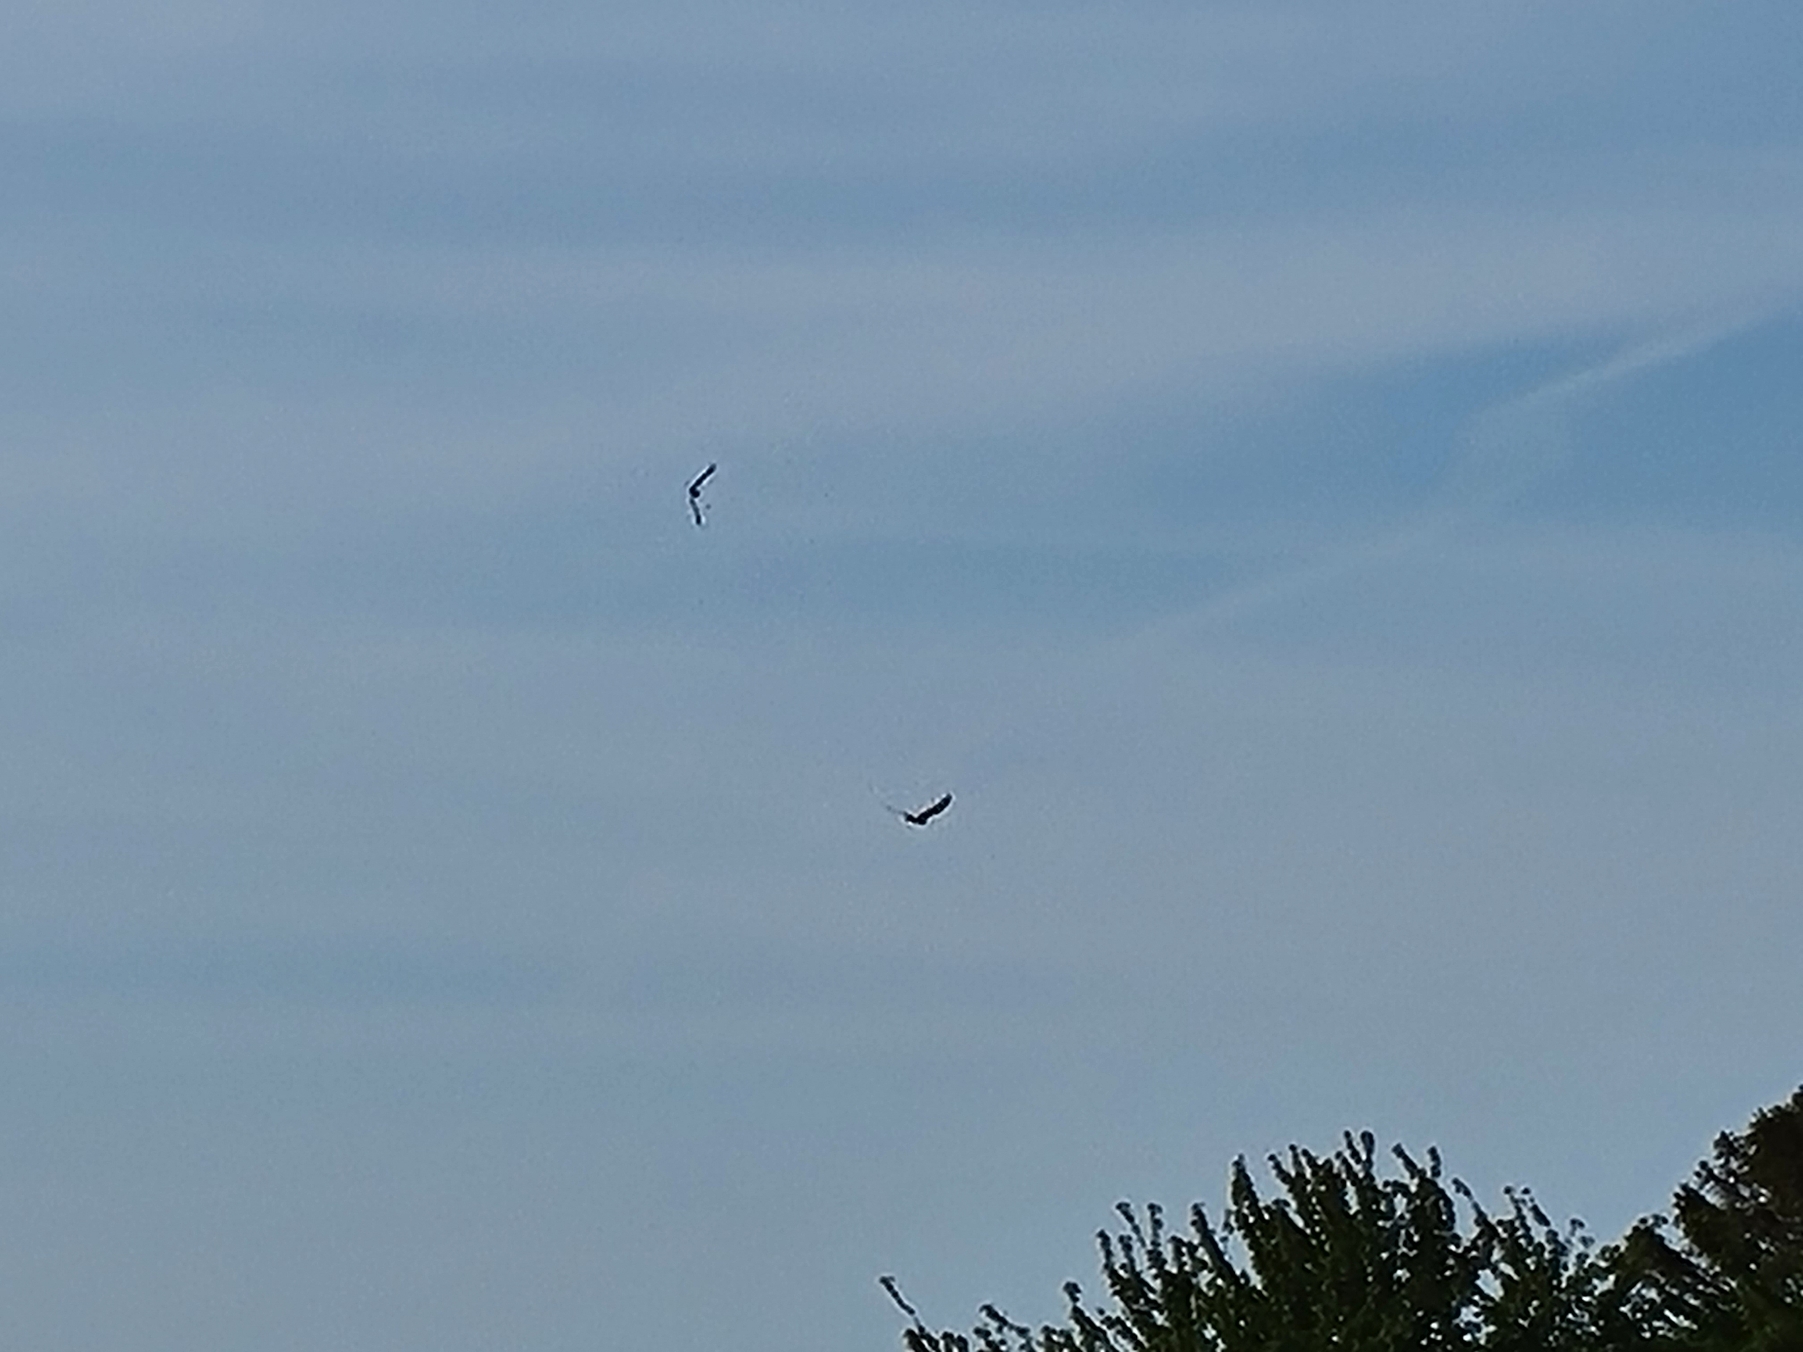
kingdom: Animalia
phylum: Chordata
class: Aves
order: Accipitriformes
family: Accipitridae
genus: Circus
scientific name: Circus aeruginosus
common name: Rørhøg
